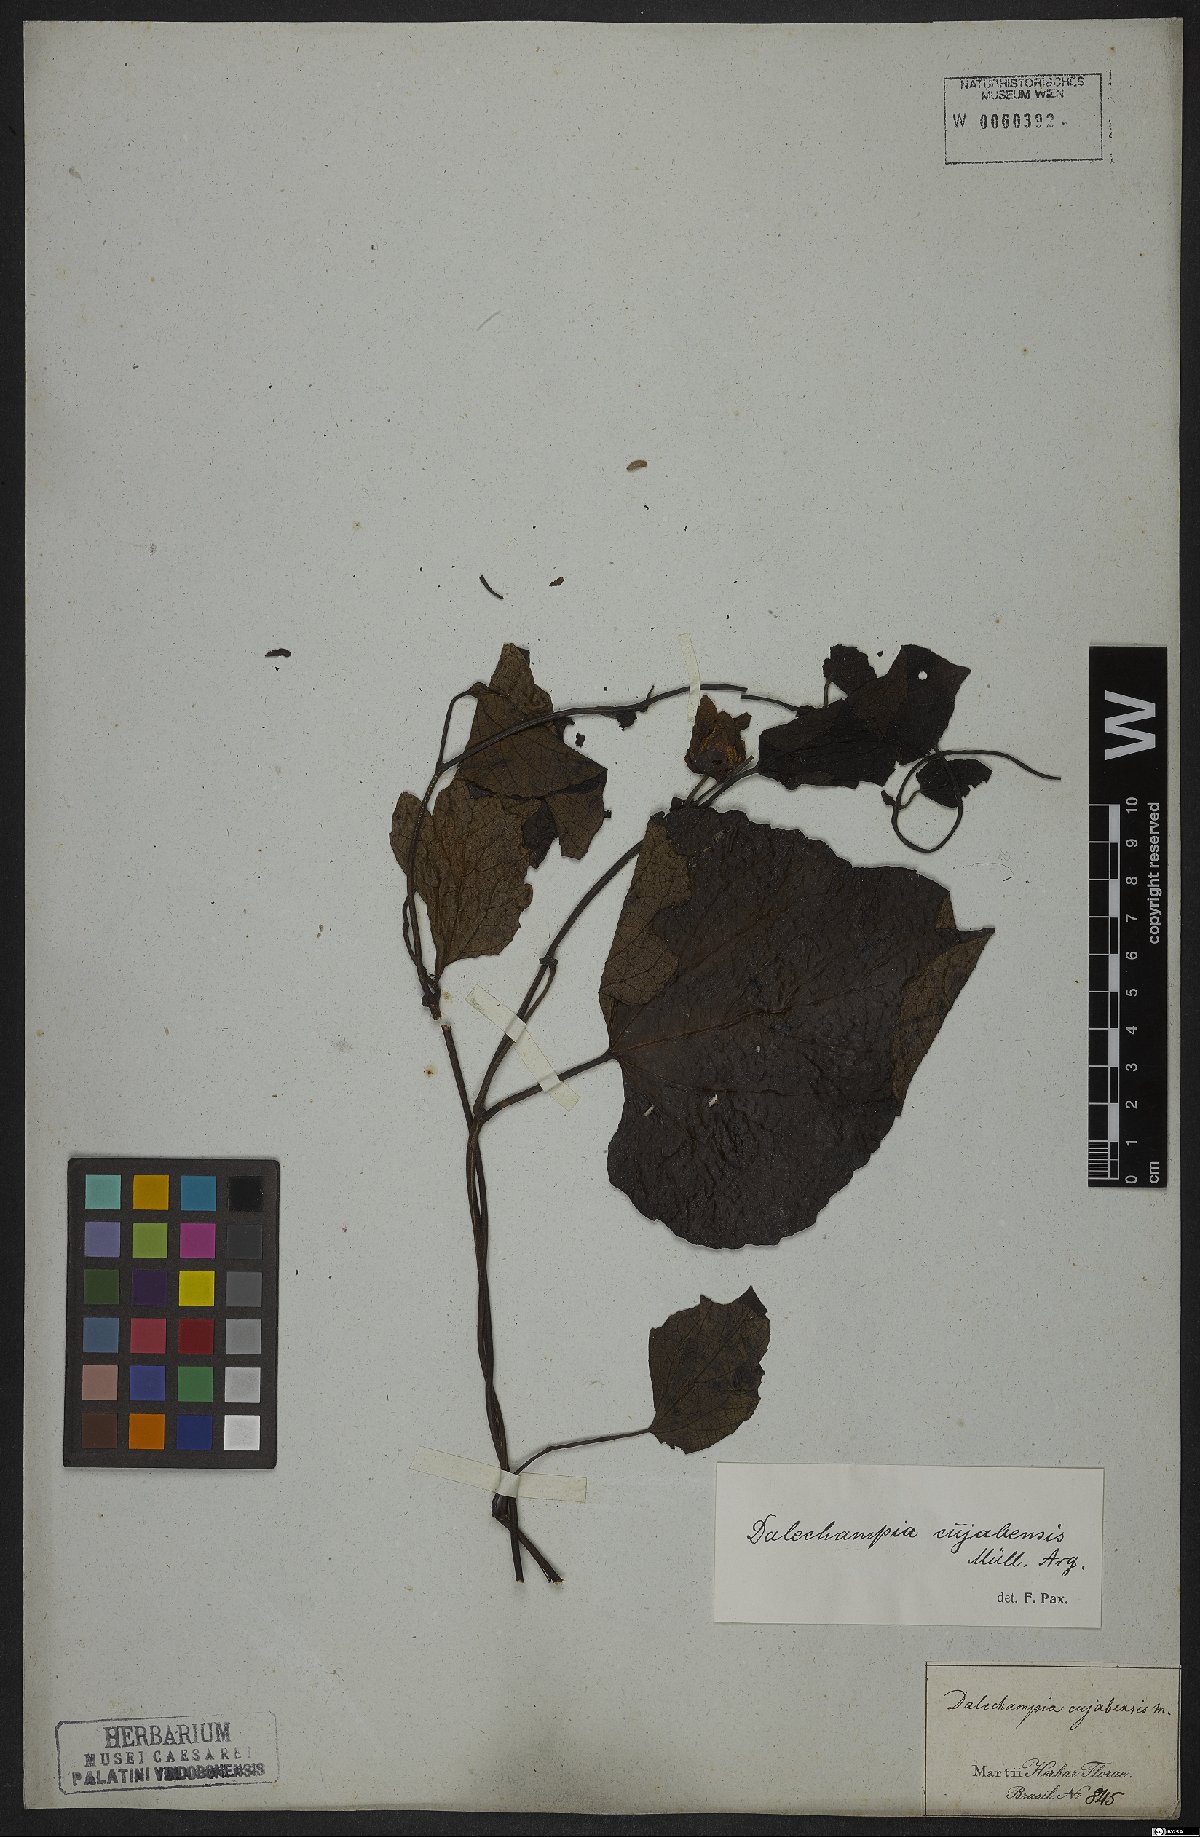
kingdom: Plantae
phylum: Tracheophyta
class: Magnoliopsida
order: Malpighiales
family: Euphorbiaceae
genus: Dalechampia
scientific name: Dalechampia cuyabensis
